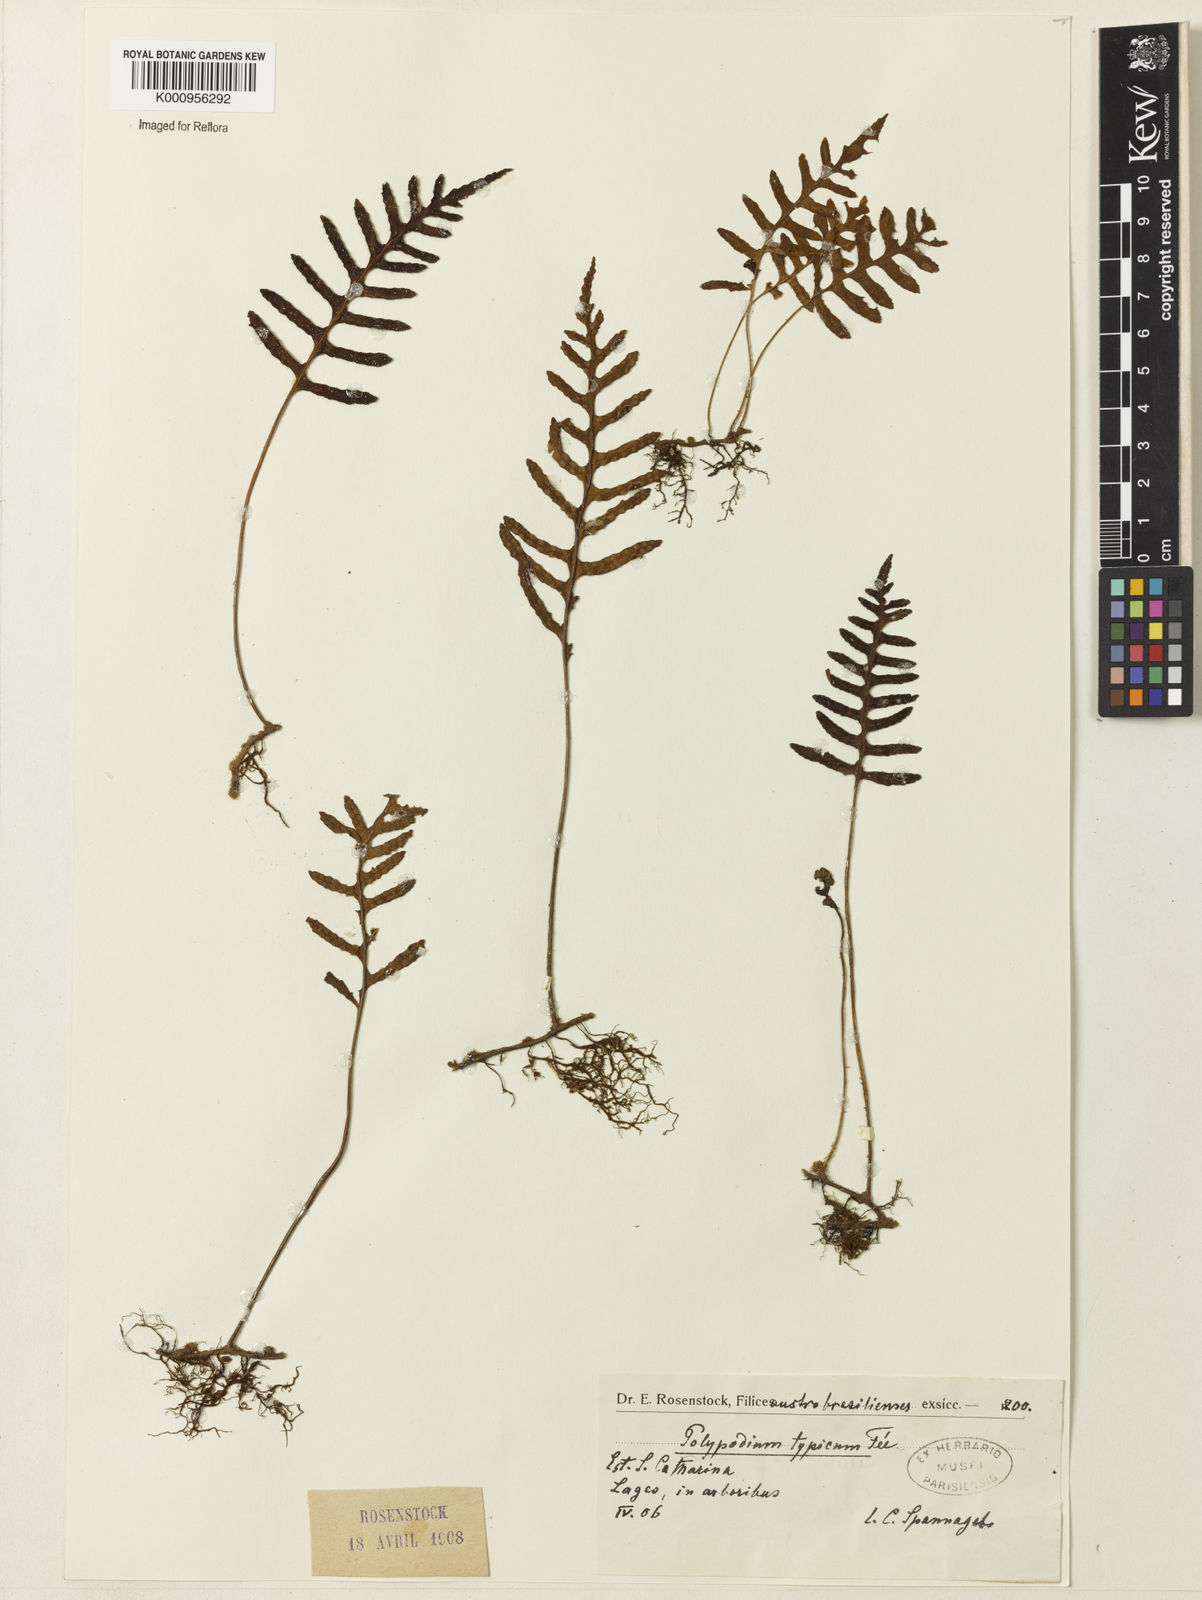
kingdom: Plantae
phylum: Tracheophyta
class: Polypodiopsida
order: Polypodiales
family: Polypodiaceae
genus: Polypodium
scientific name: Polypodium
